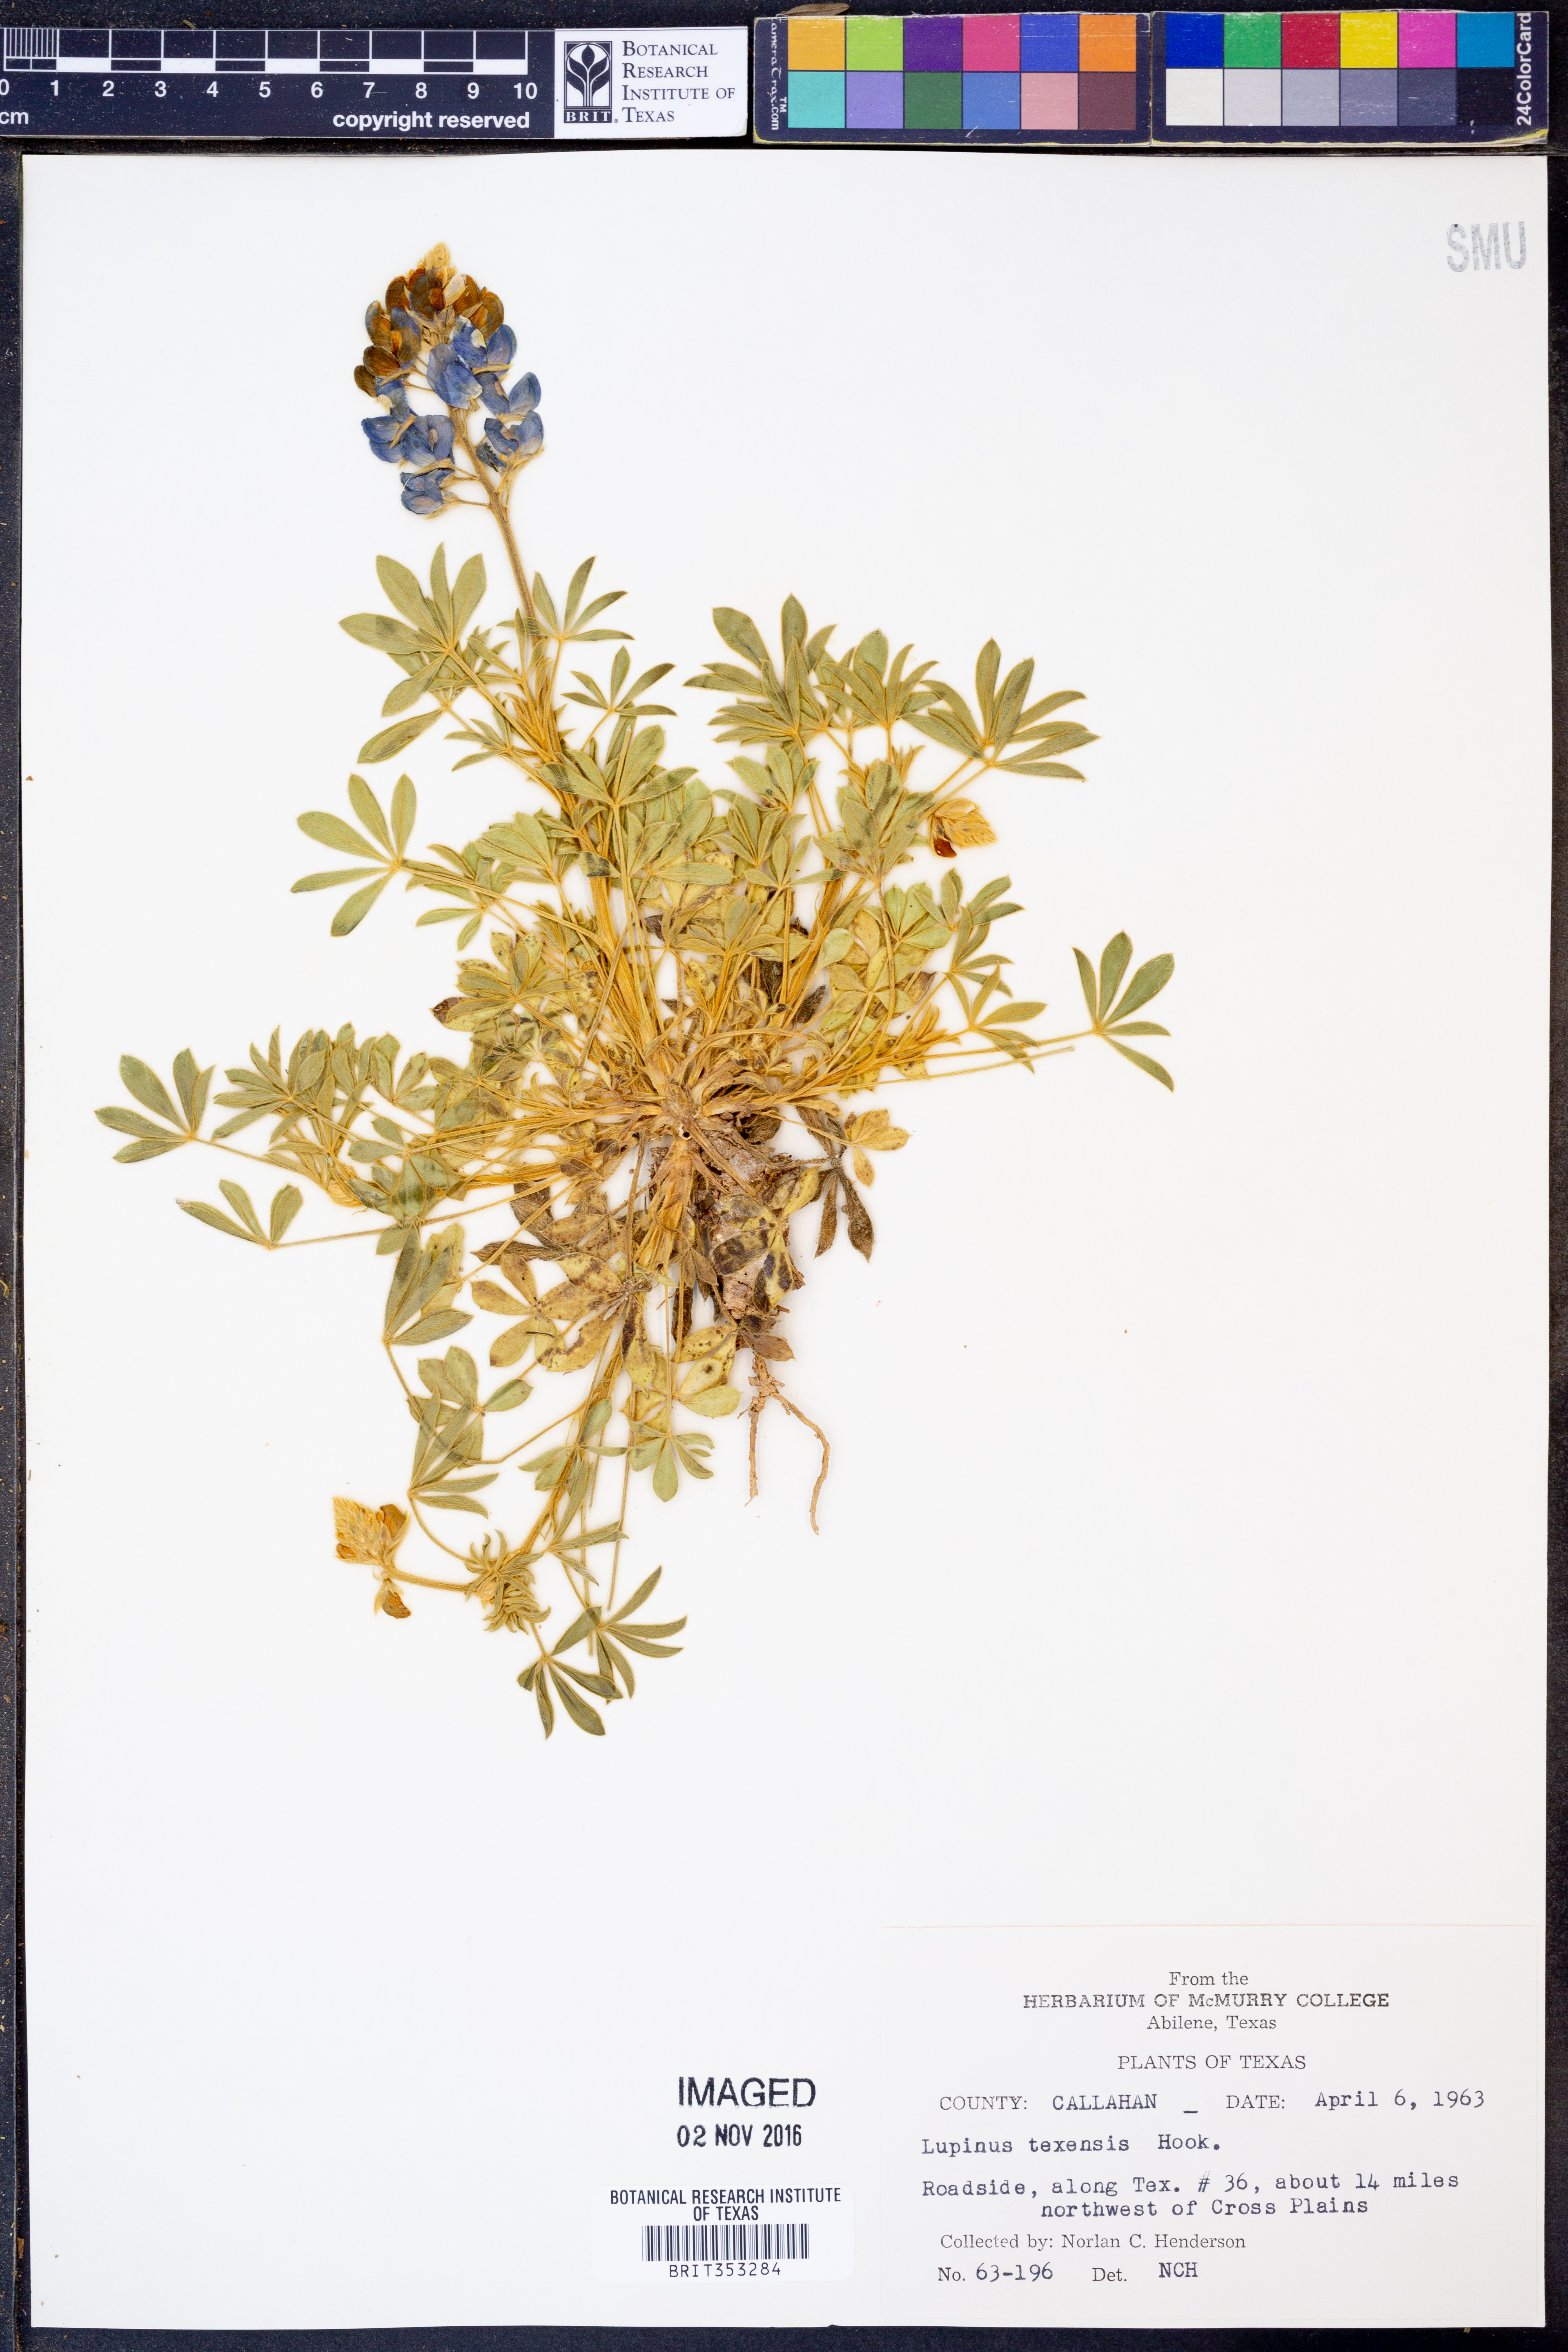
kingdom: Plantae
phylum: Tracheophyta
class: Magnoliopsida
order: Fabales
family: Fabaceae
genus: Lupinus
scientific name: Lupinus texensis
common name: Texas bluebonnet
